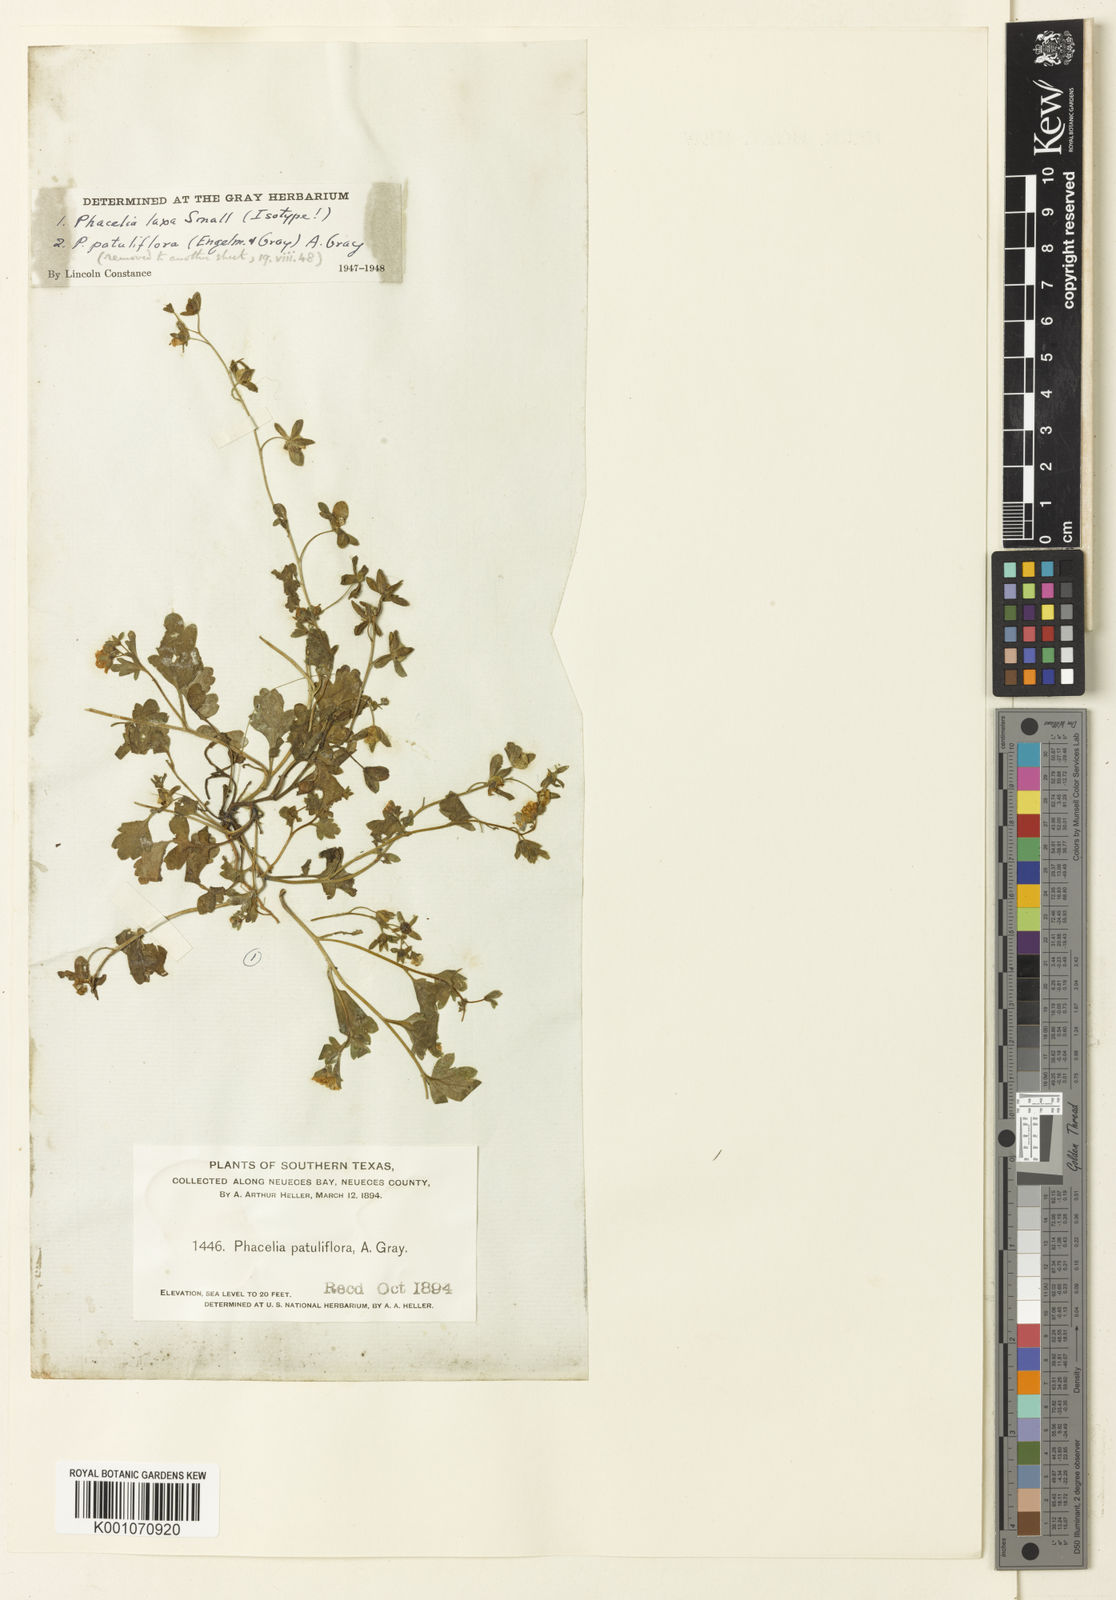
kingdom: Plantae
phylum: Tracheophyta
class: Magnoliopsida
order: Boraginales
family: Hydrophyllaceae
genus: Phacelia
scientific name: Phacelia laxa
